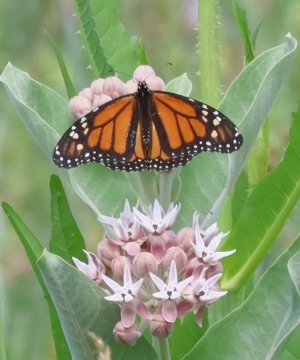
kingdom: Animalia
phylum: Arthropoda
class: Insecta
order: Lepidoptera
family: Nymphalidae
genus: Danaus
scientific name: Danaus plexippus
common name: Monarch
